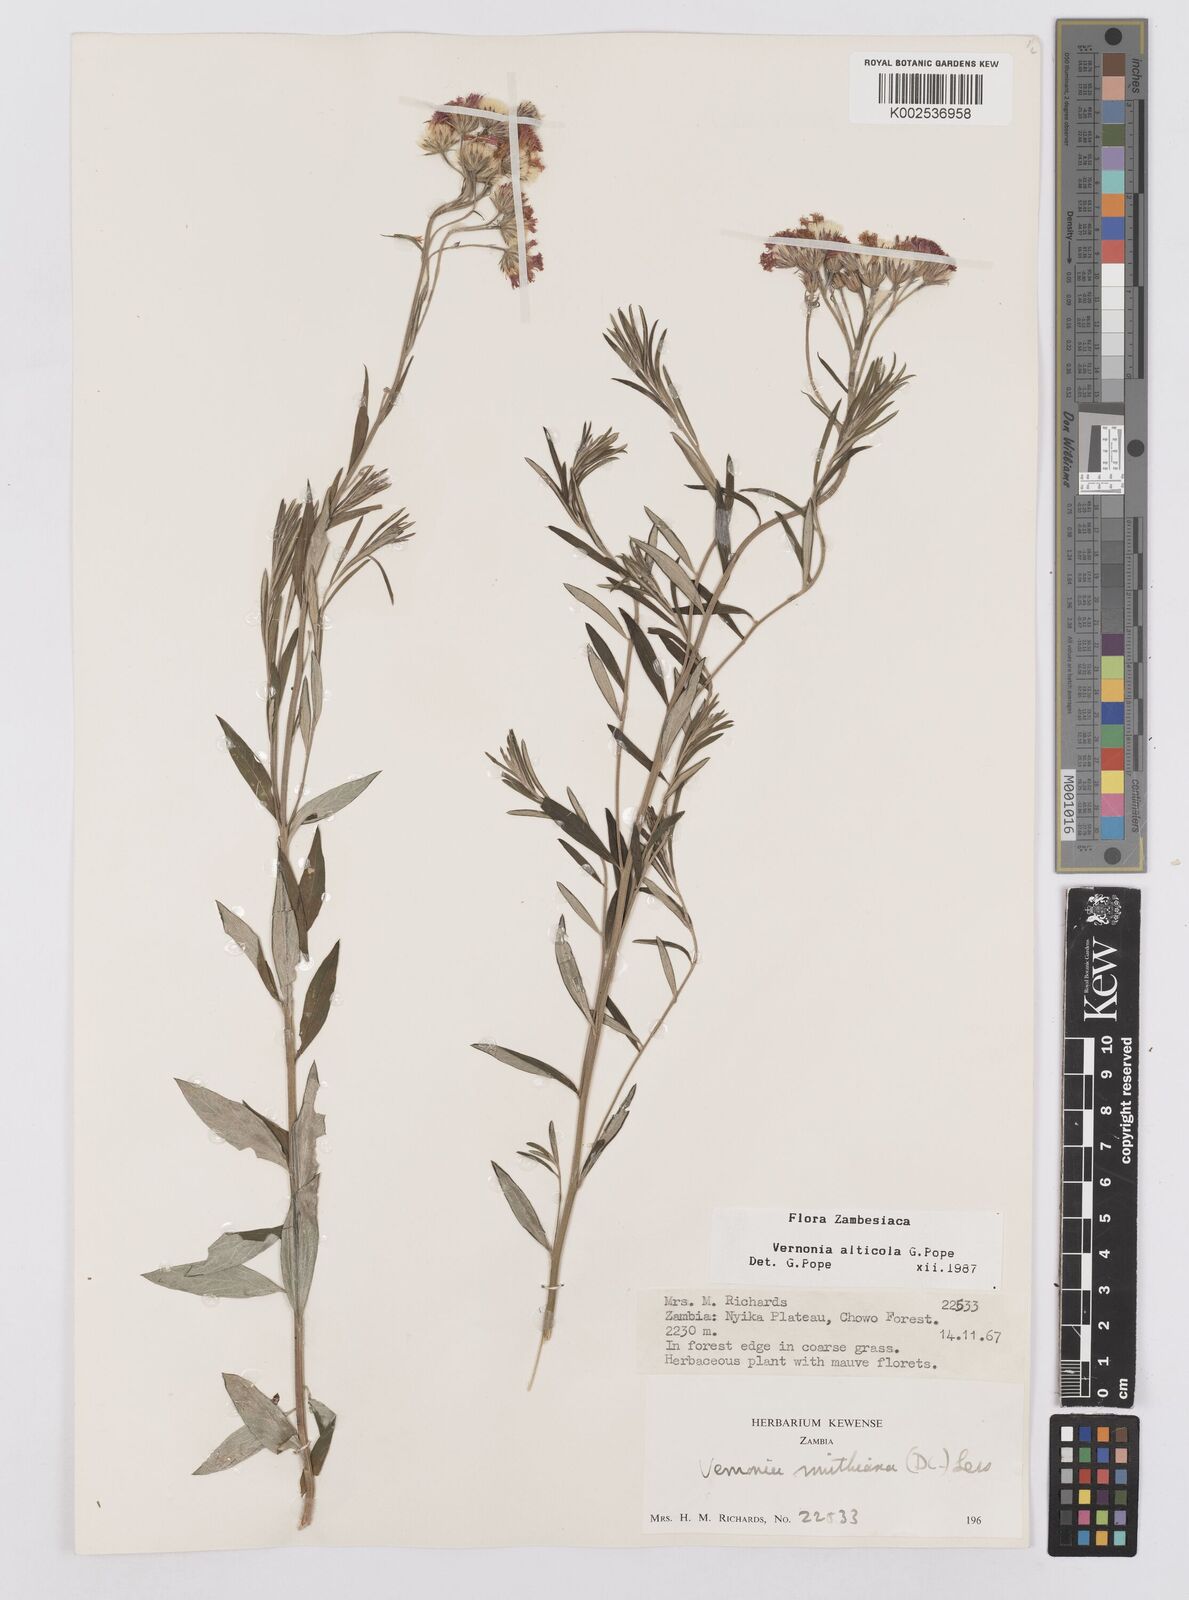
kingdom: Plantae
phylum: Tracheophyta
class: Magnoliopsida
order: Asterales
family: Asteraceae
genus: Vernonia
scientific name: Vernonia alticola
